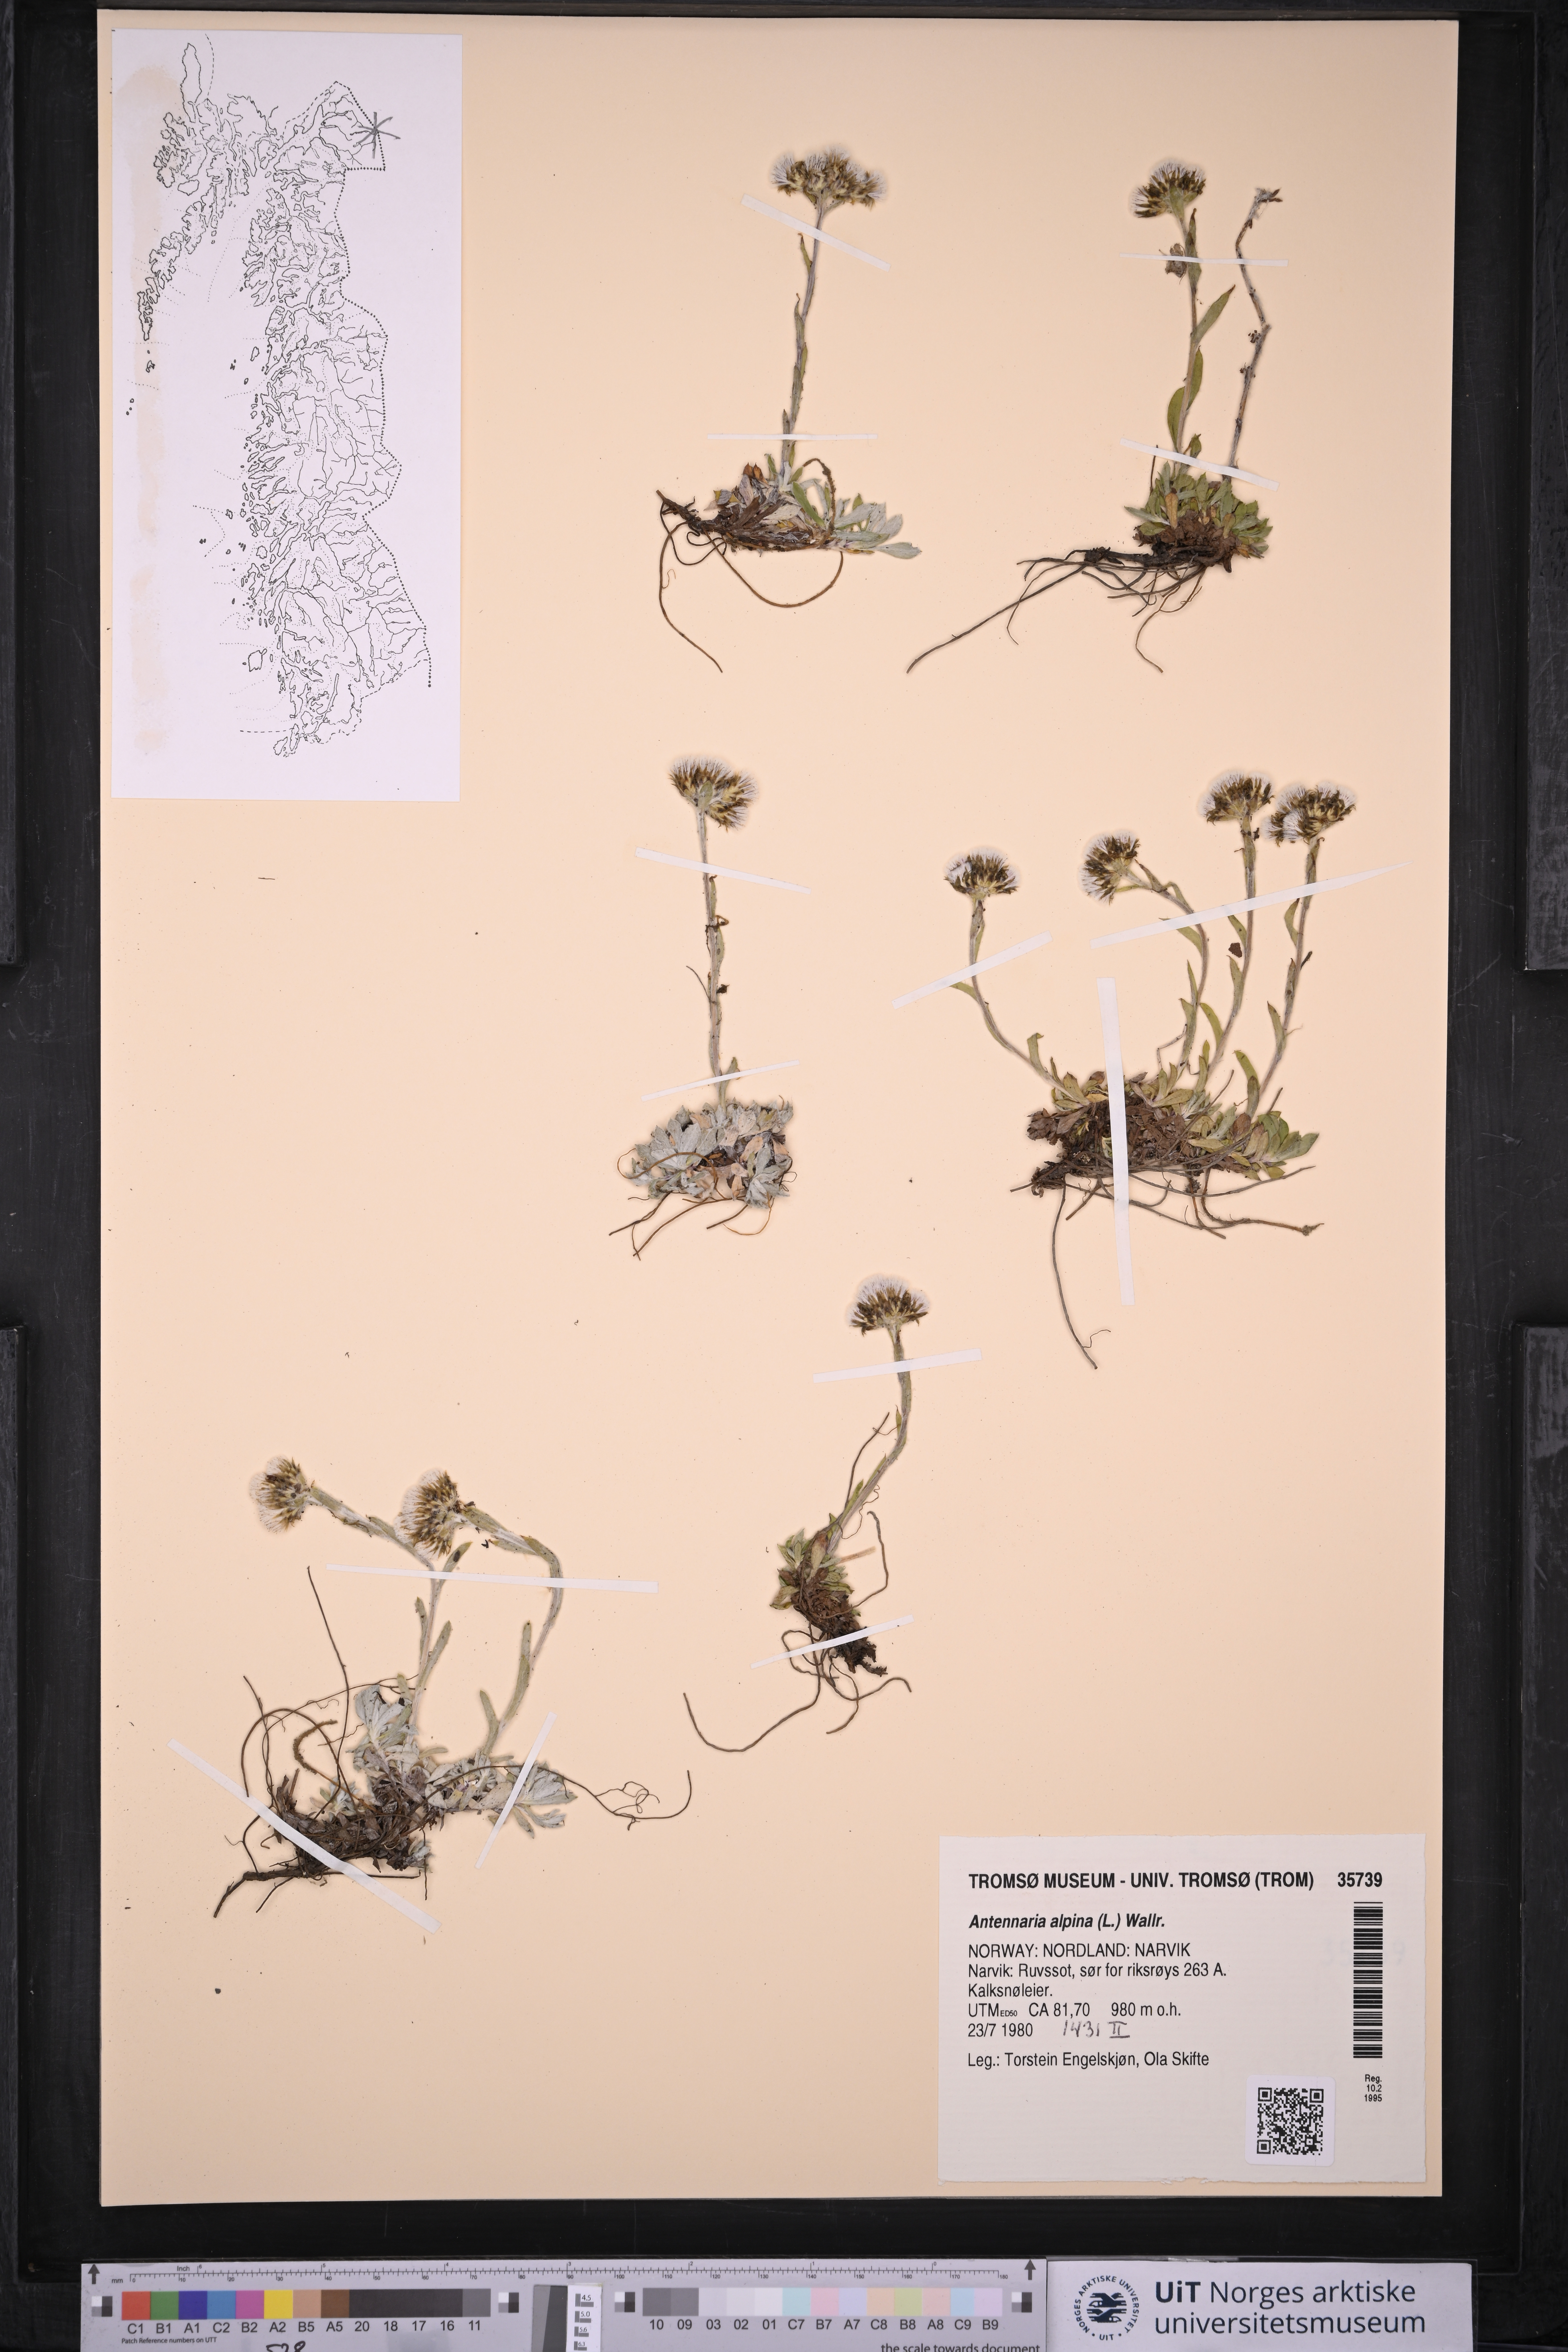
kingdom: Plantae
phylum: Tracheophyta
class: Magnoliopsida
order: Asterales
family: Asteraceae
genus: Antennaria
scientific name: Antennaria alpina
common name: Alpine pussytoes
